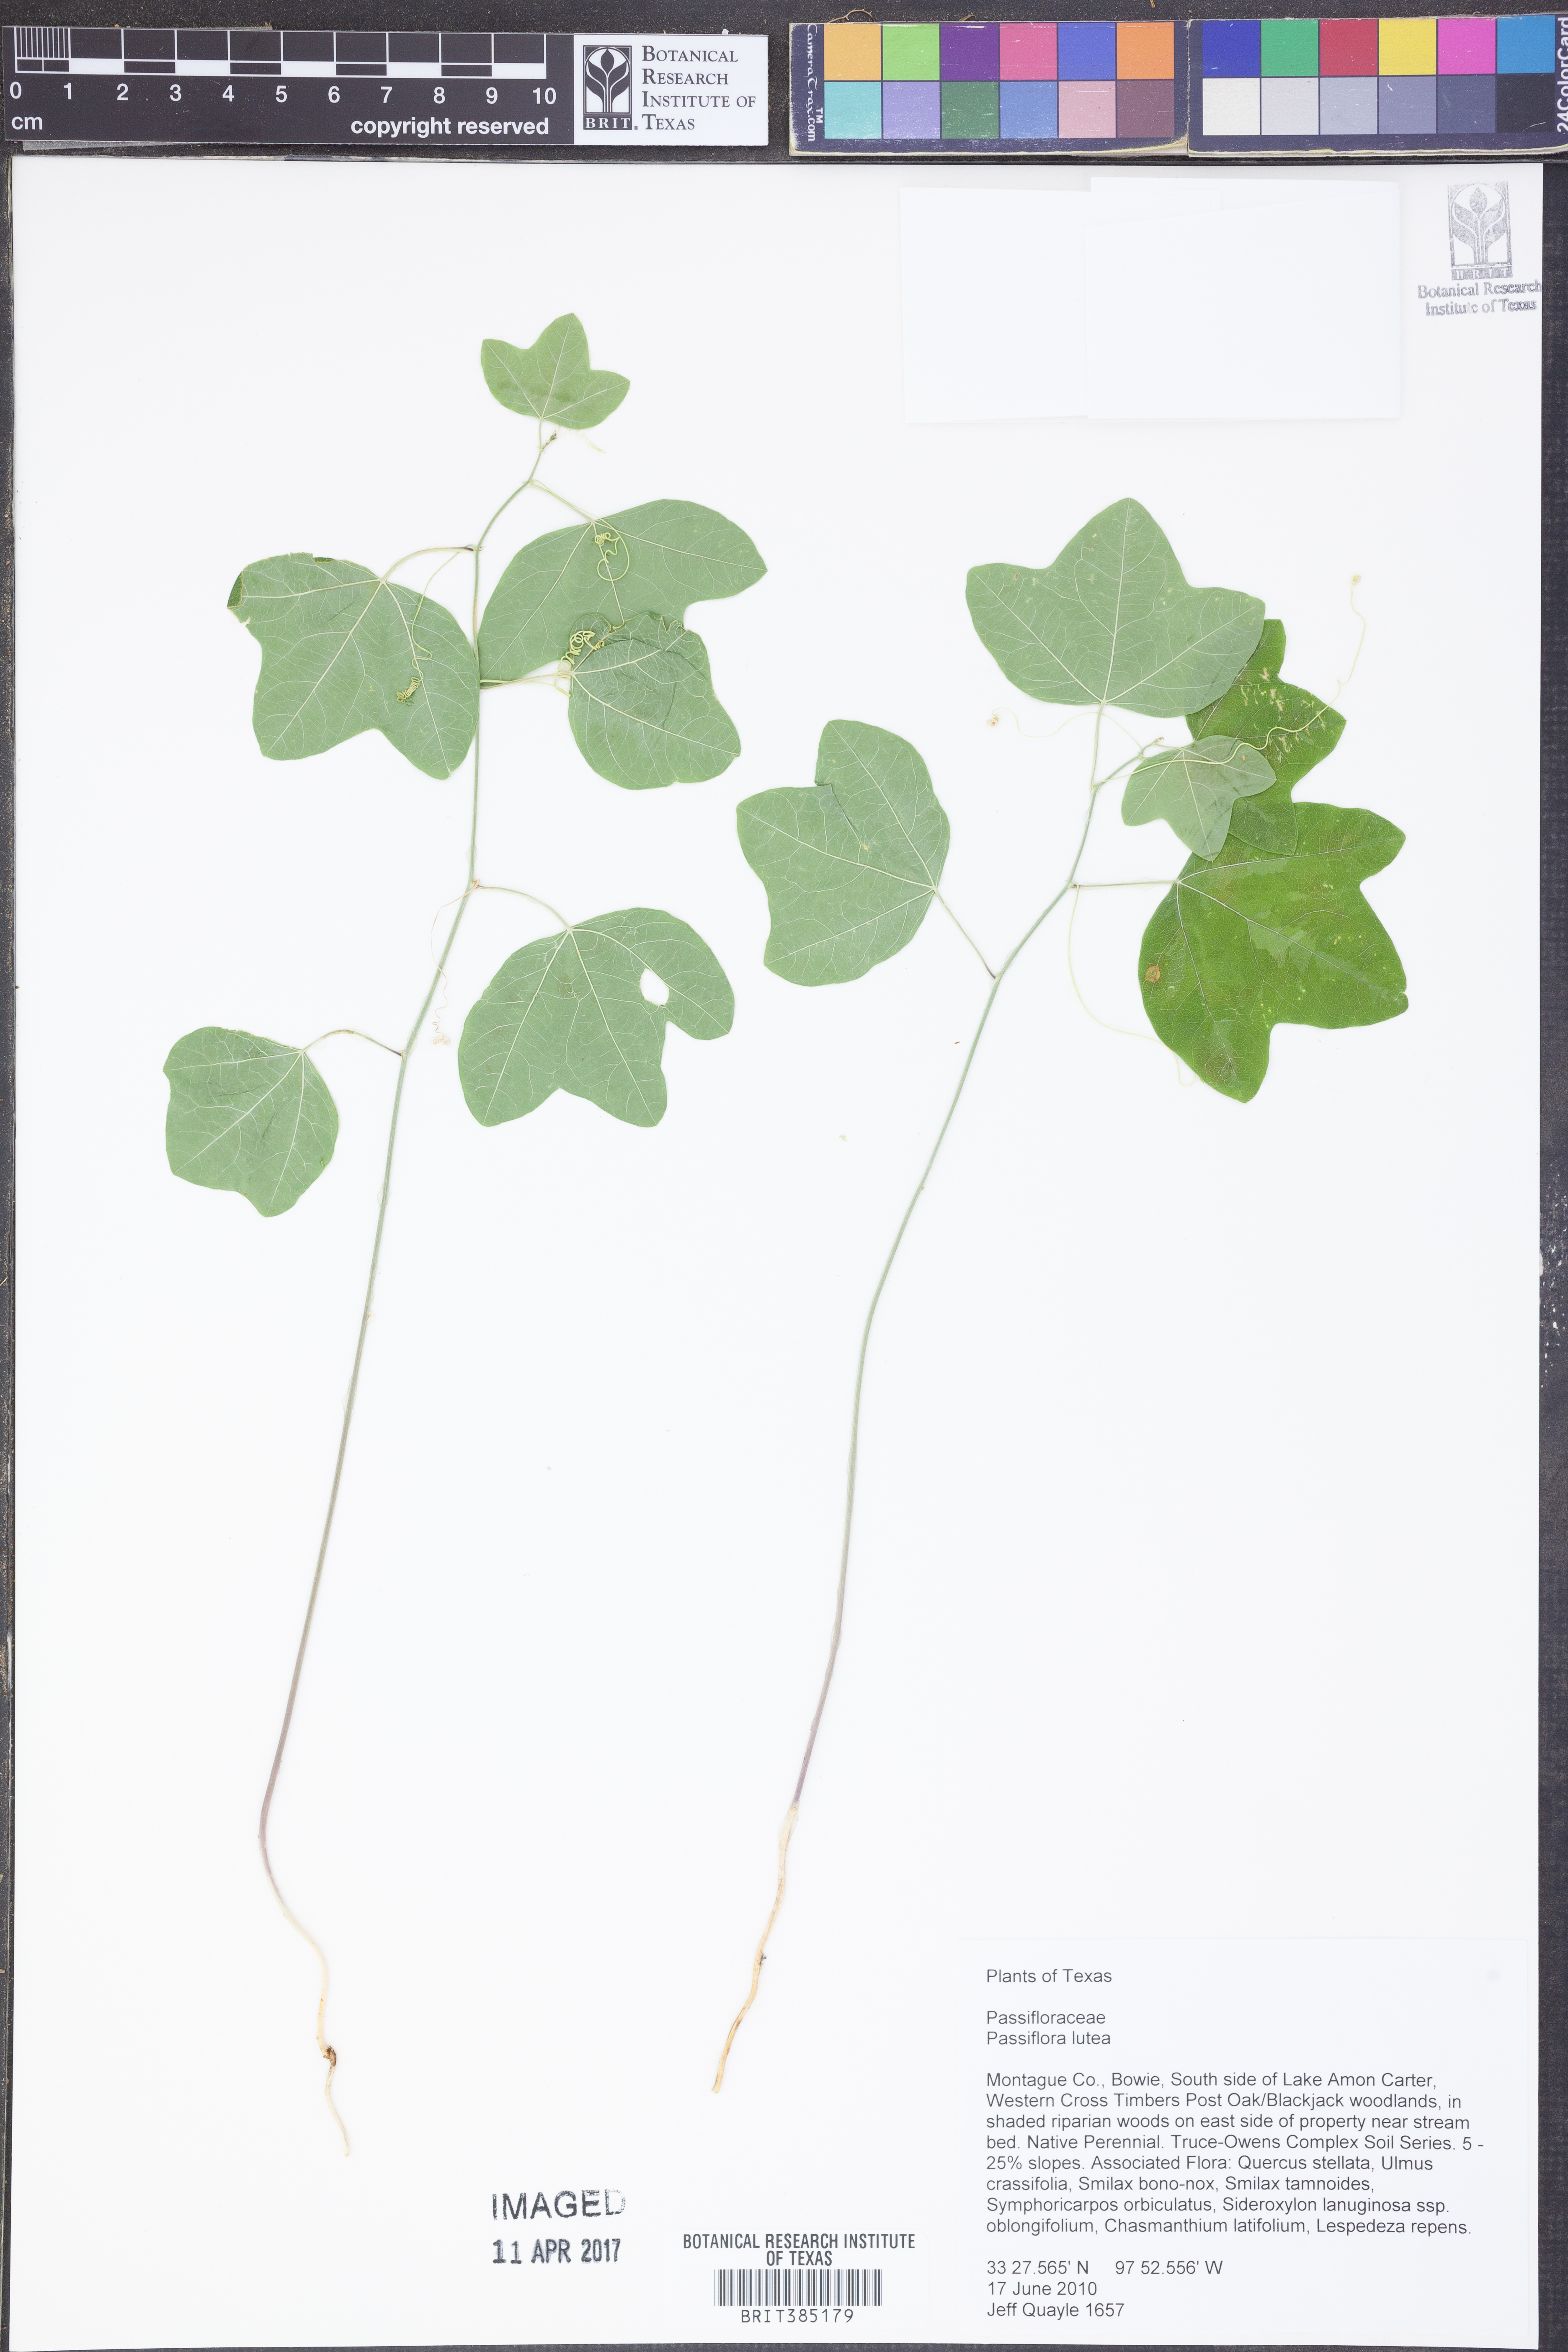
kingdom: Plantae
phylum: Tracheophyta
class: Magnoliopsida
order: Malpighiales
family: Passifloraceae
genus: Passiflora
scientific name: Passiflora lutea
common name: Yellow passionflower
